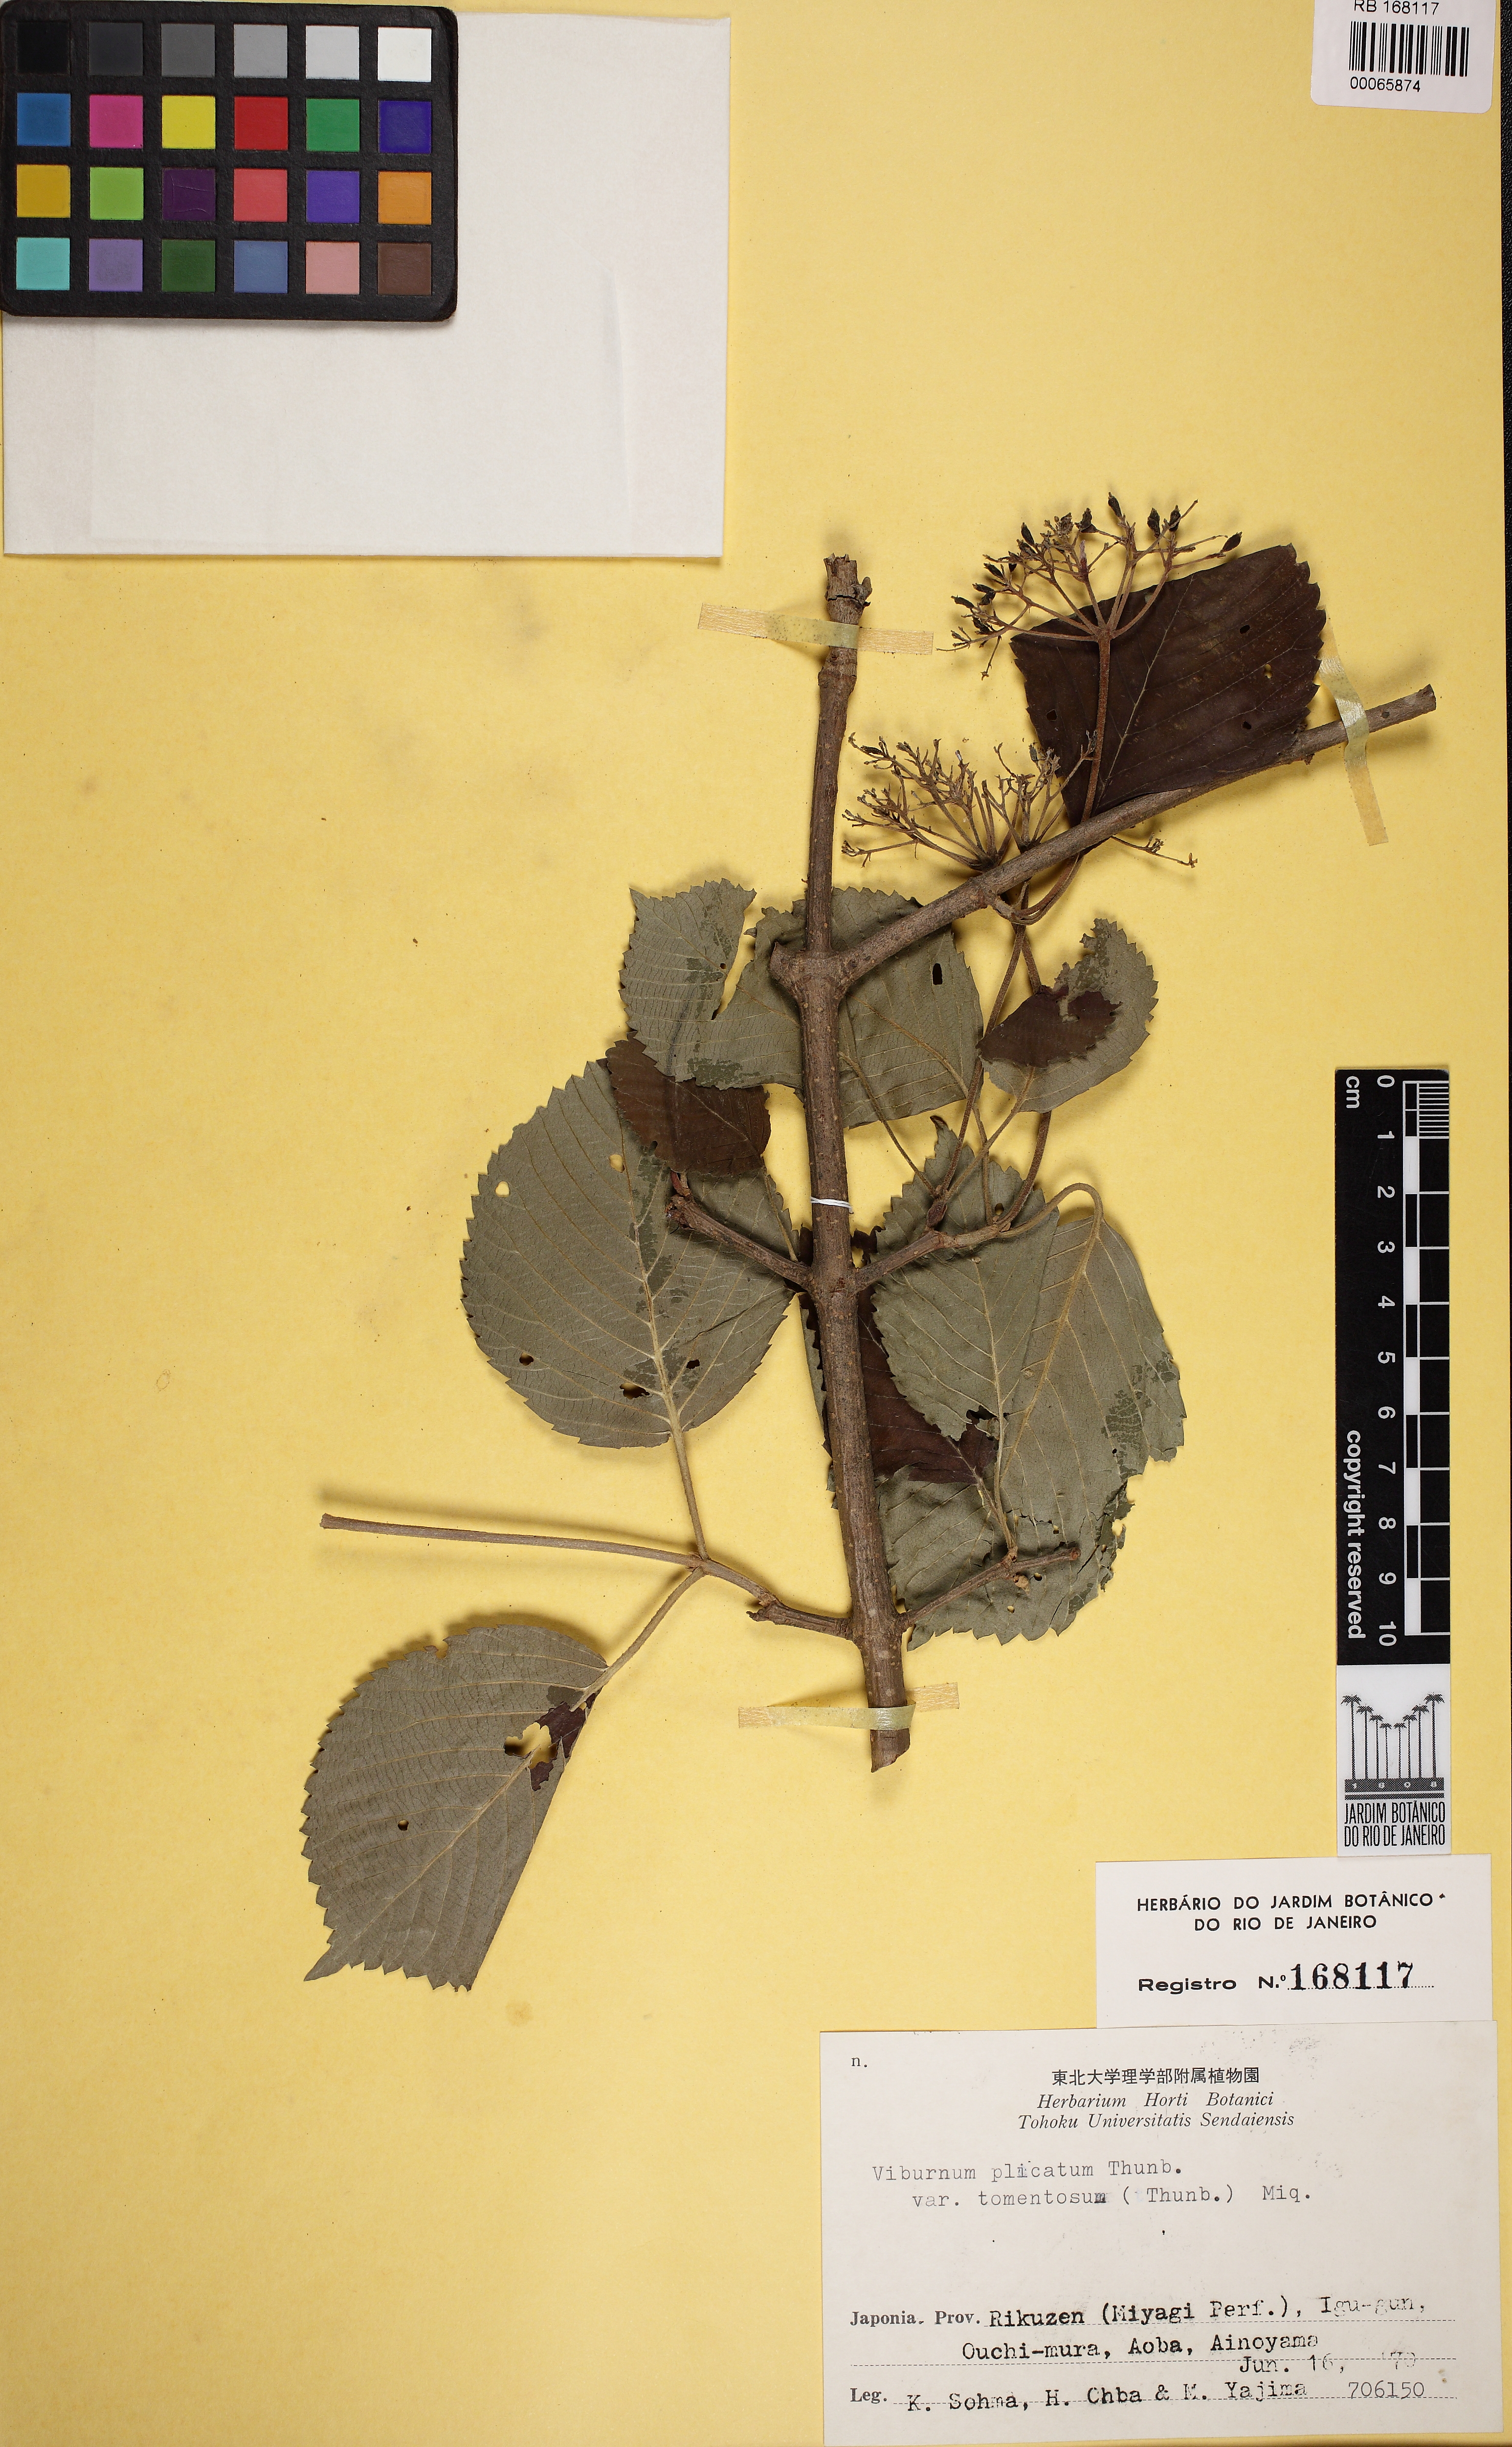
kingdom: Plantae
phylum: Tracheophyta
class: Magnoliopsida
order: Dipsacales
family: Viburnaceae
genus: Viburnum
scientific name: Viburnum plicatum
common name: Japanese snowball
